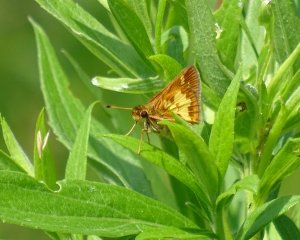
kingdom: Animalia
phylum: Arthropoda
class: Insecta
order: Lepidoptera
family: Hesperiidae
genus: Polites
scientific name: Polites coras
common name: Peck's Skipper
